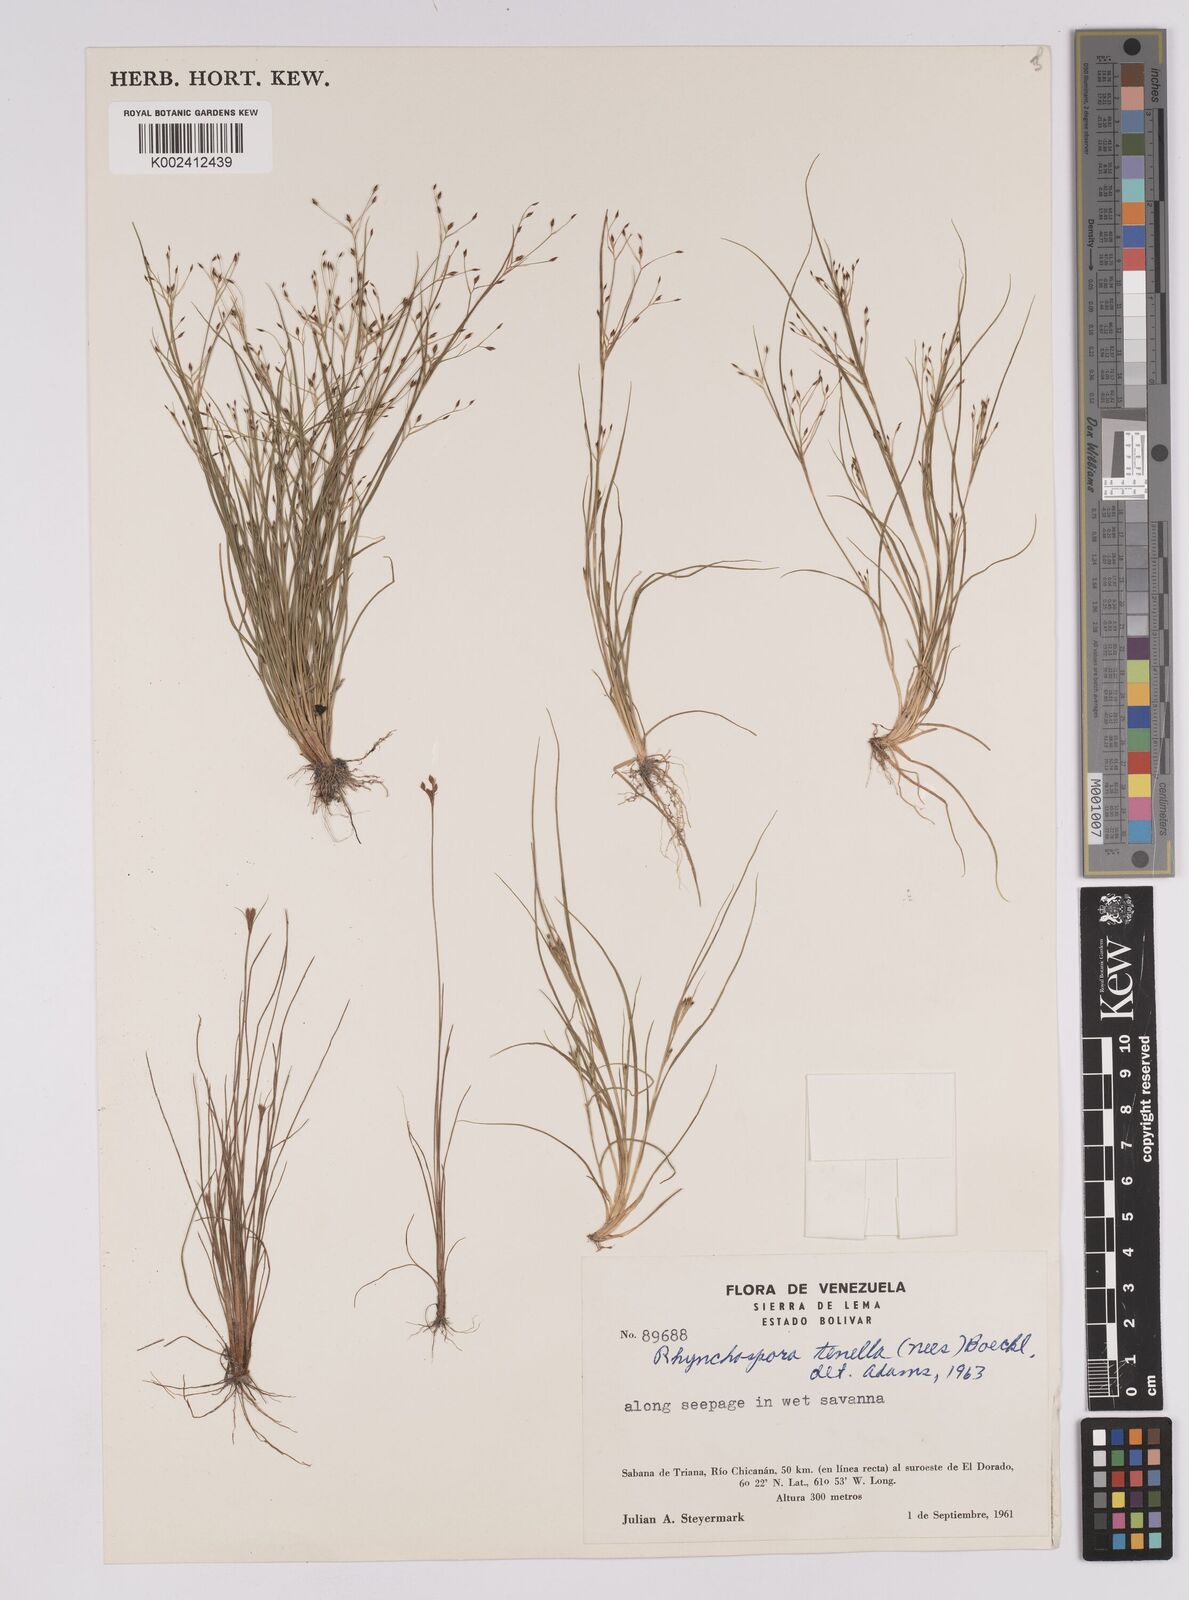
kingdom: Plantae
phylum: Tracheophyta
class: Liliopsida
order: Poales
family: Cyperaceae
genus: Rhynchospora
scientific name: Rhynchospora tenella
